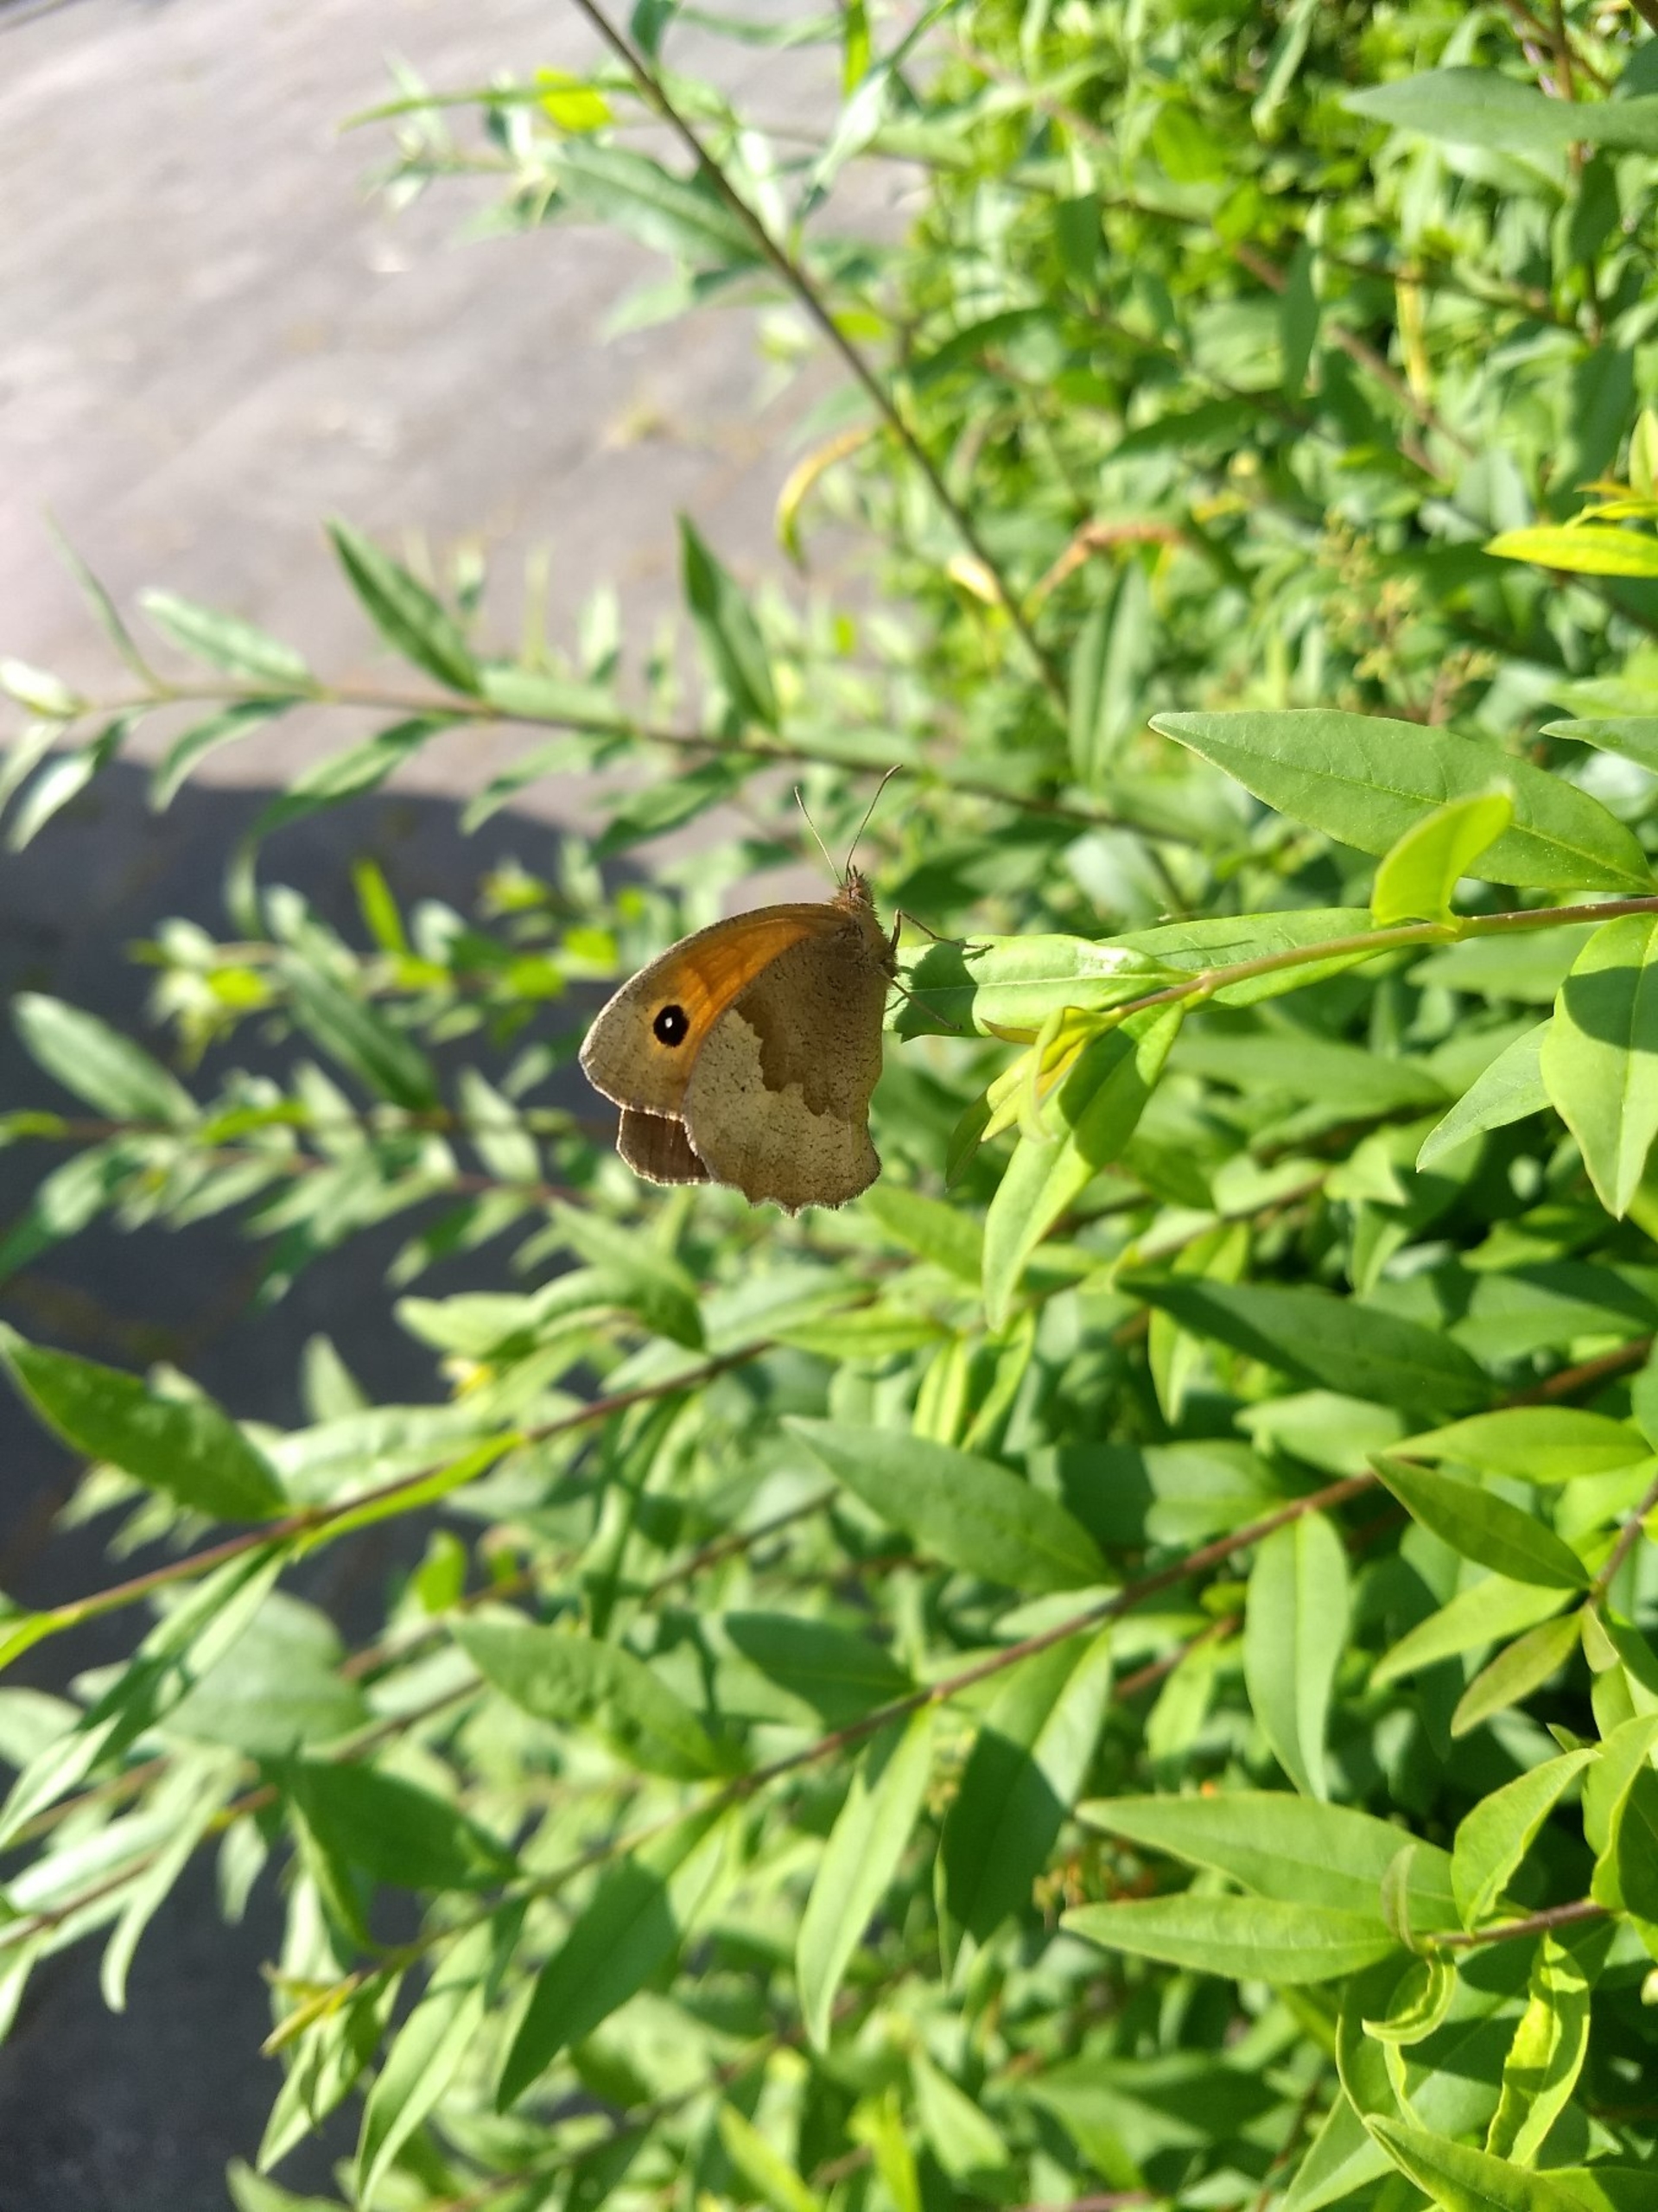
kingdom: Animalia
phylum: Arthropoda
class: Insecta
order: Lepidoptera
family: Nymphalidae
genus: Maniola
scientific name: Maniola jurtina
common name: Græsrandøje
